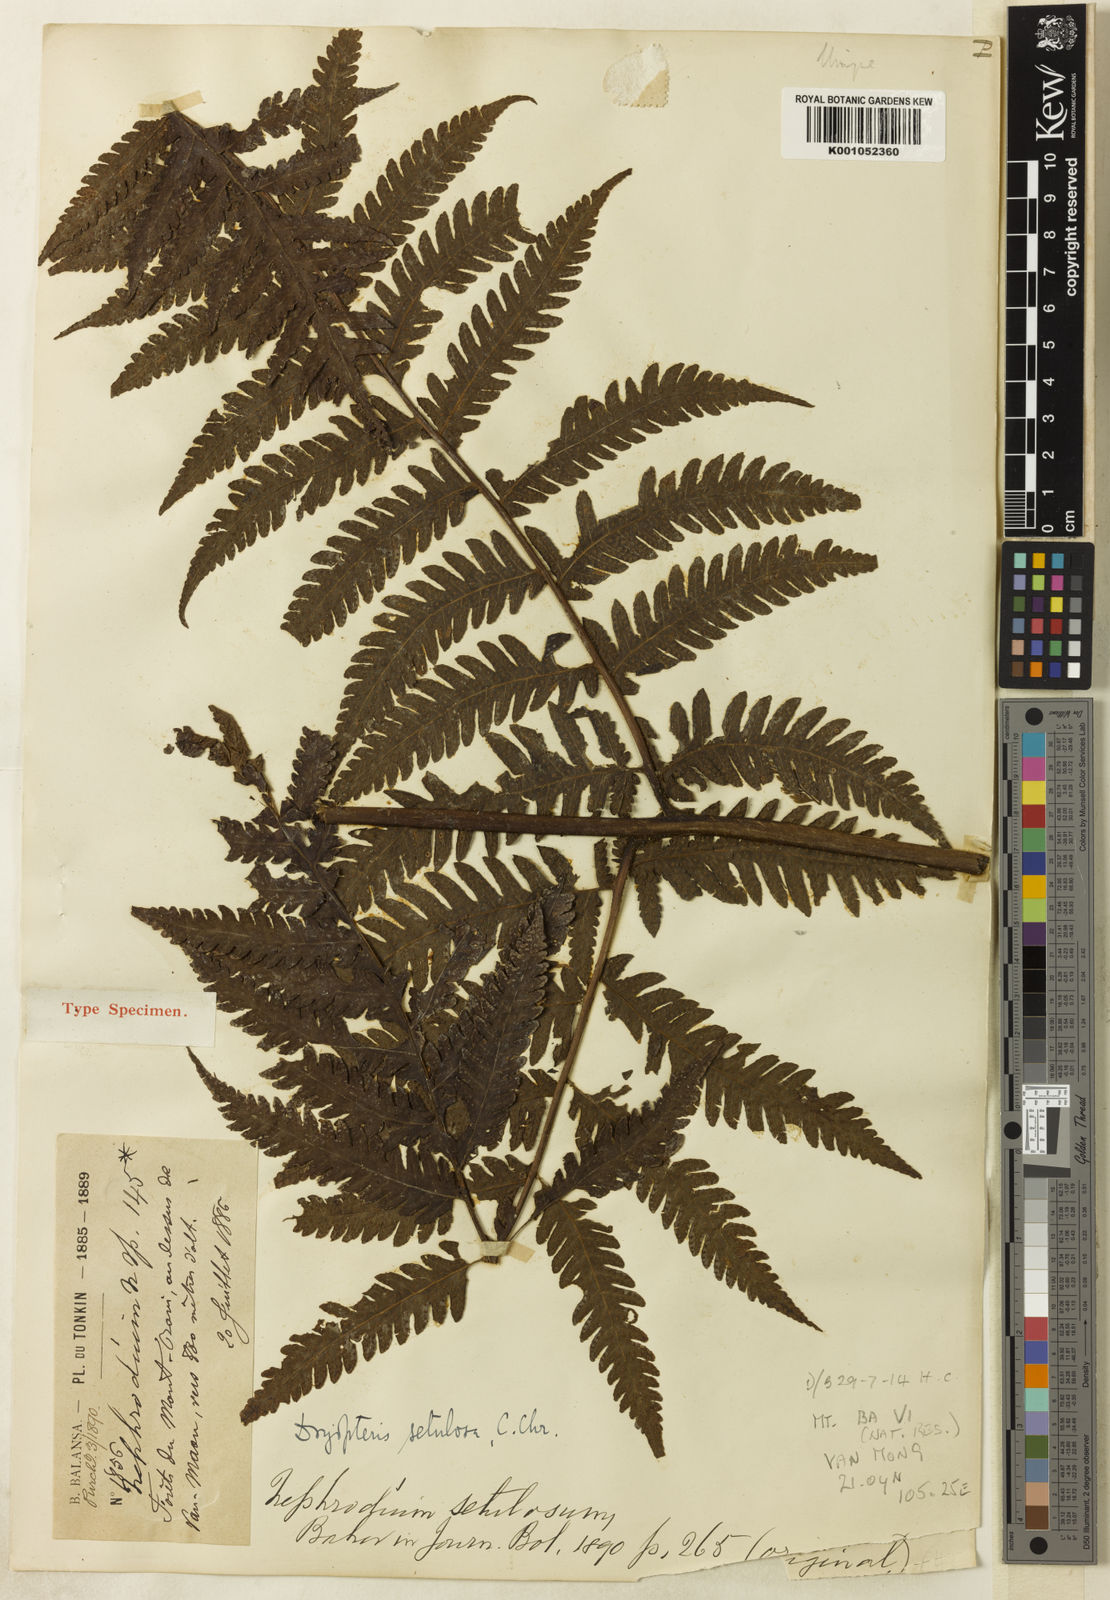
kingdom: Plantae
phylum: Tracheophyta
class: Polypodiopsida
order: Polypodiales
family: Tectariaceae
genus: Tectaria
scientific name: Tectaria setulosa
